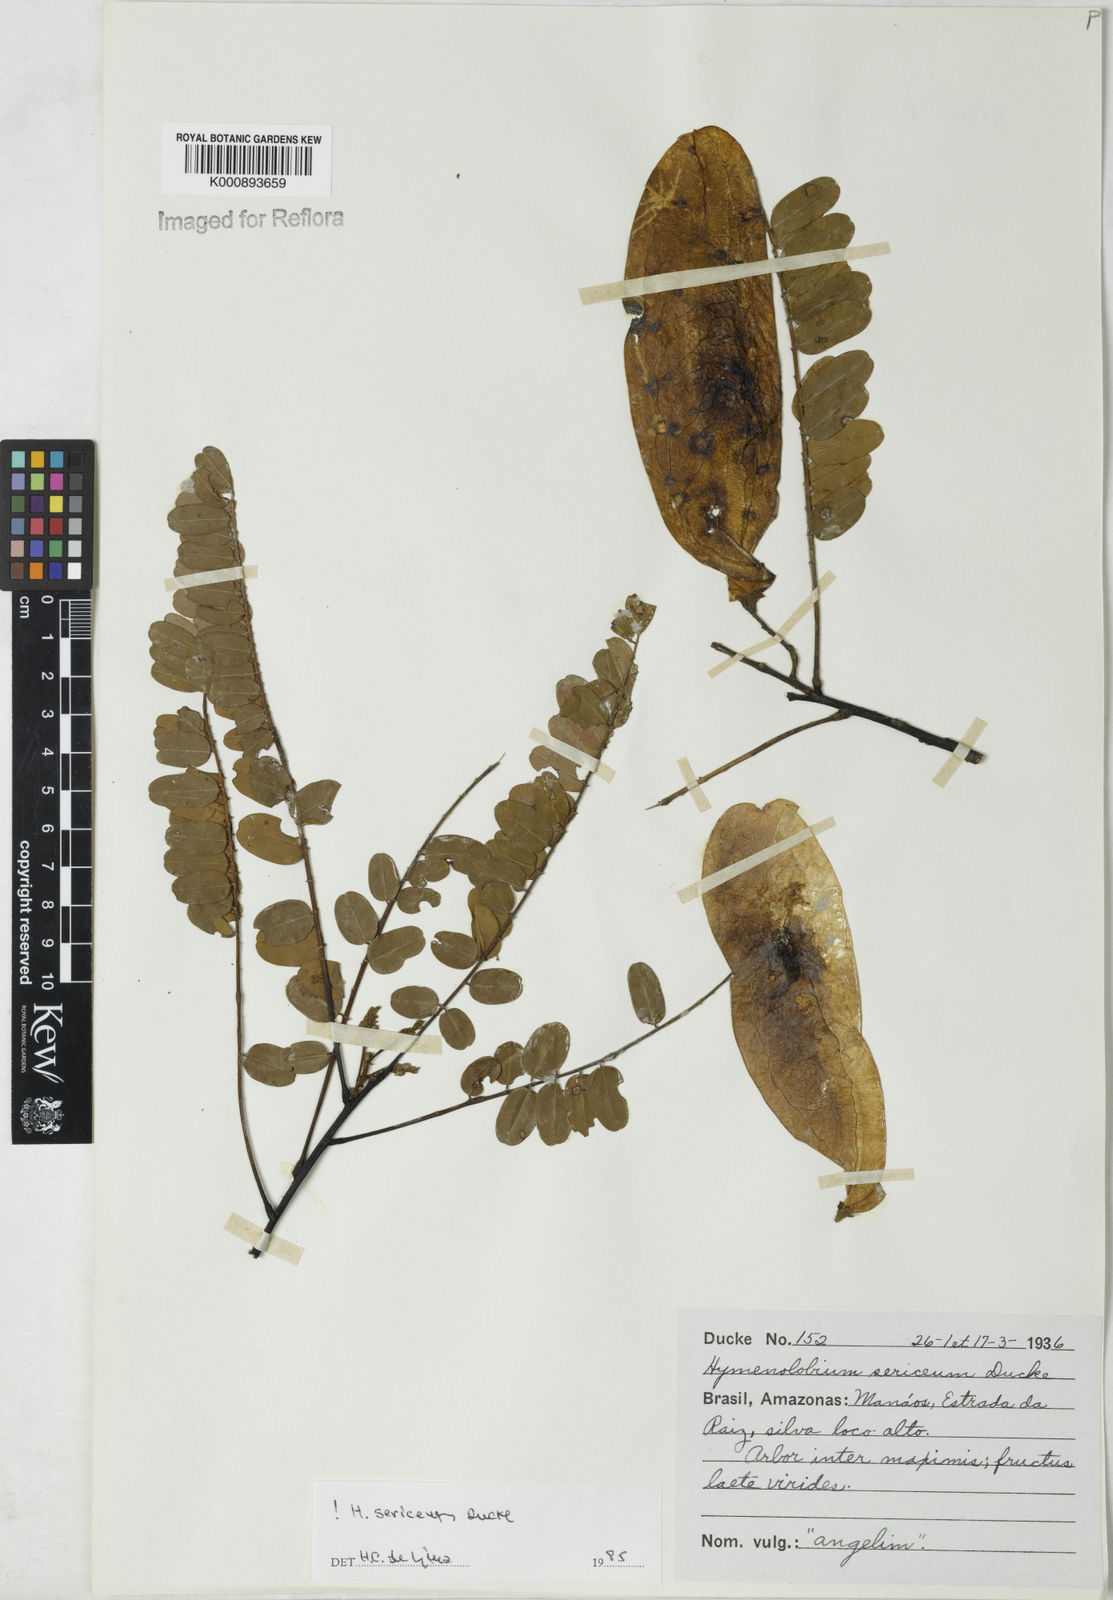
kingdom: Plantae
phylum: Tracheophyta
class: Magnoliopsida
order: Fabales
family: Fabaceae
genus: Hymenolobium
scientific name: Hymenolobium sericeum
